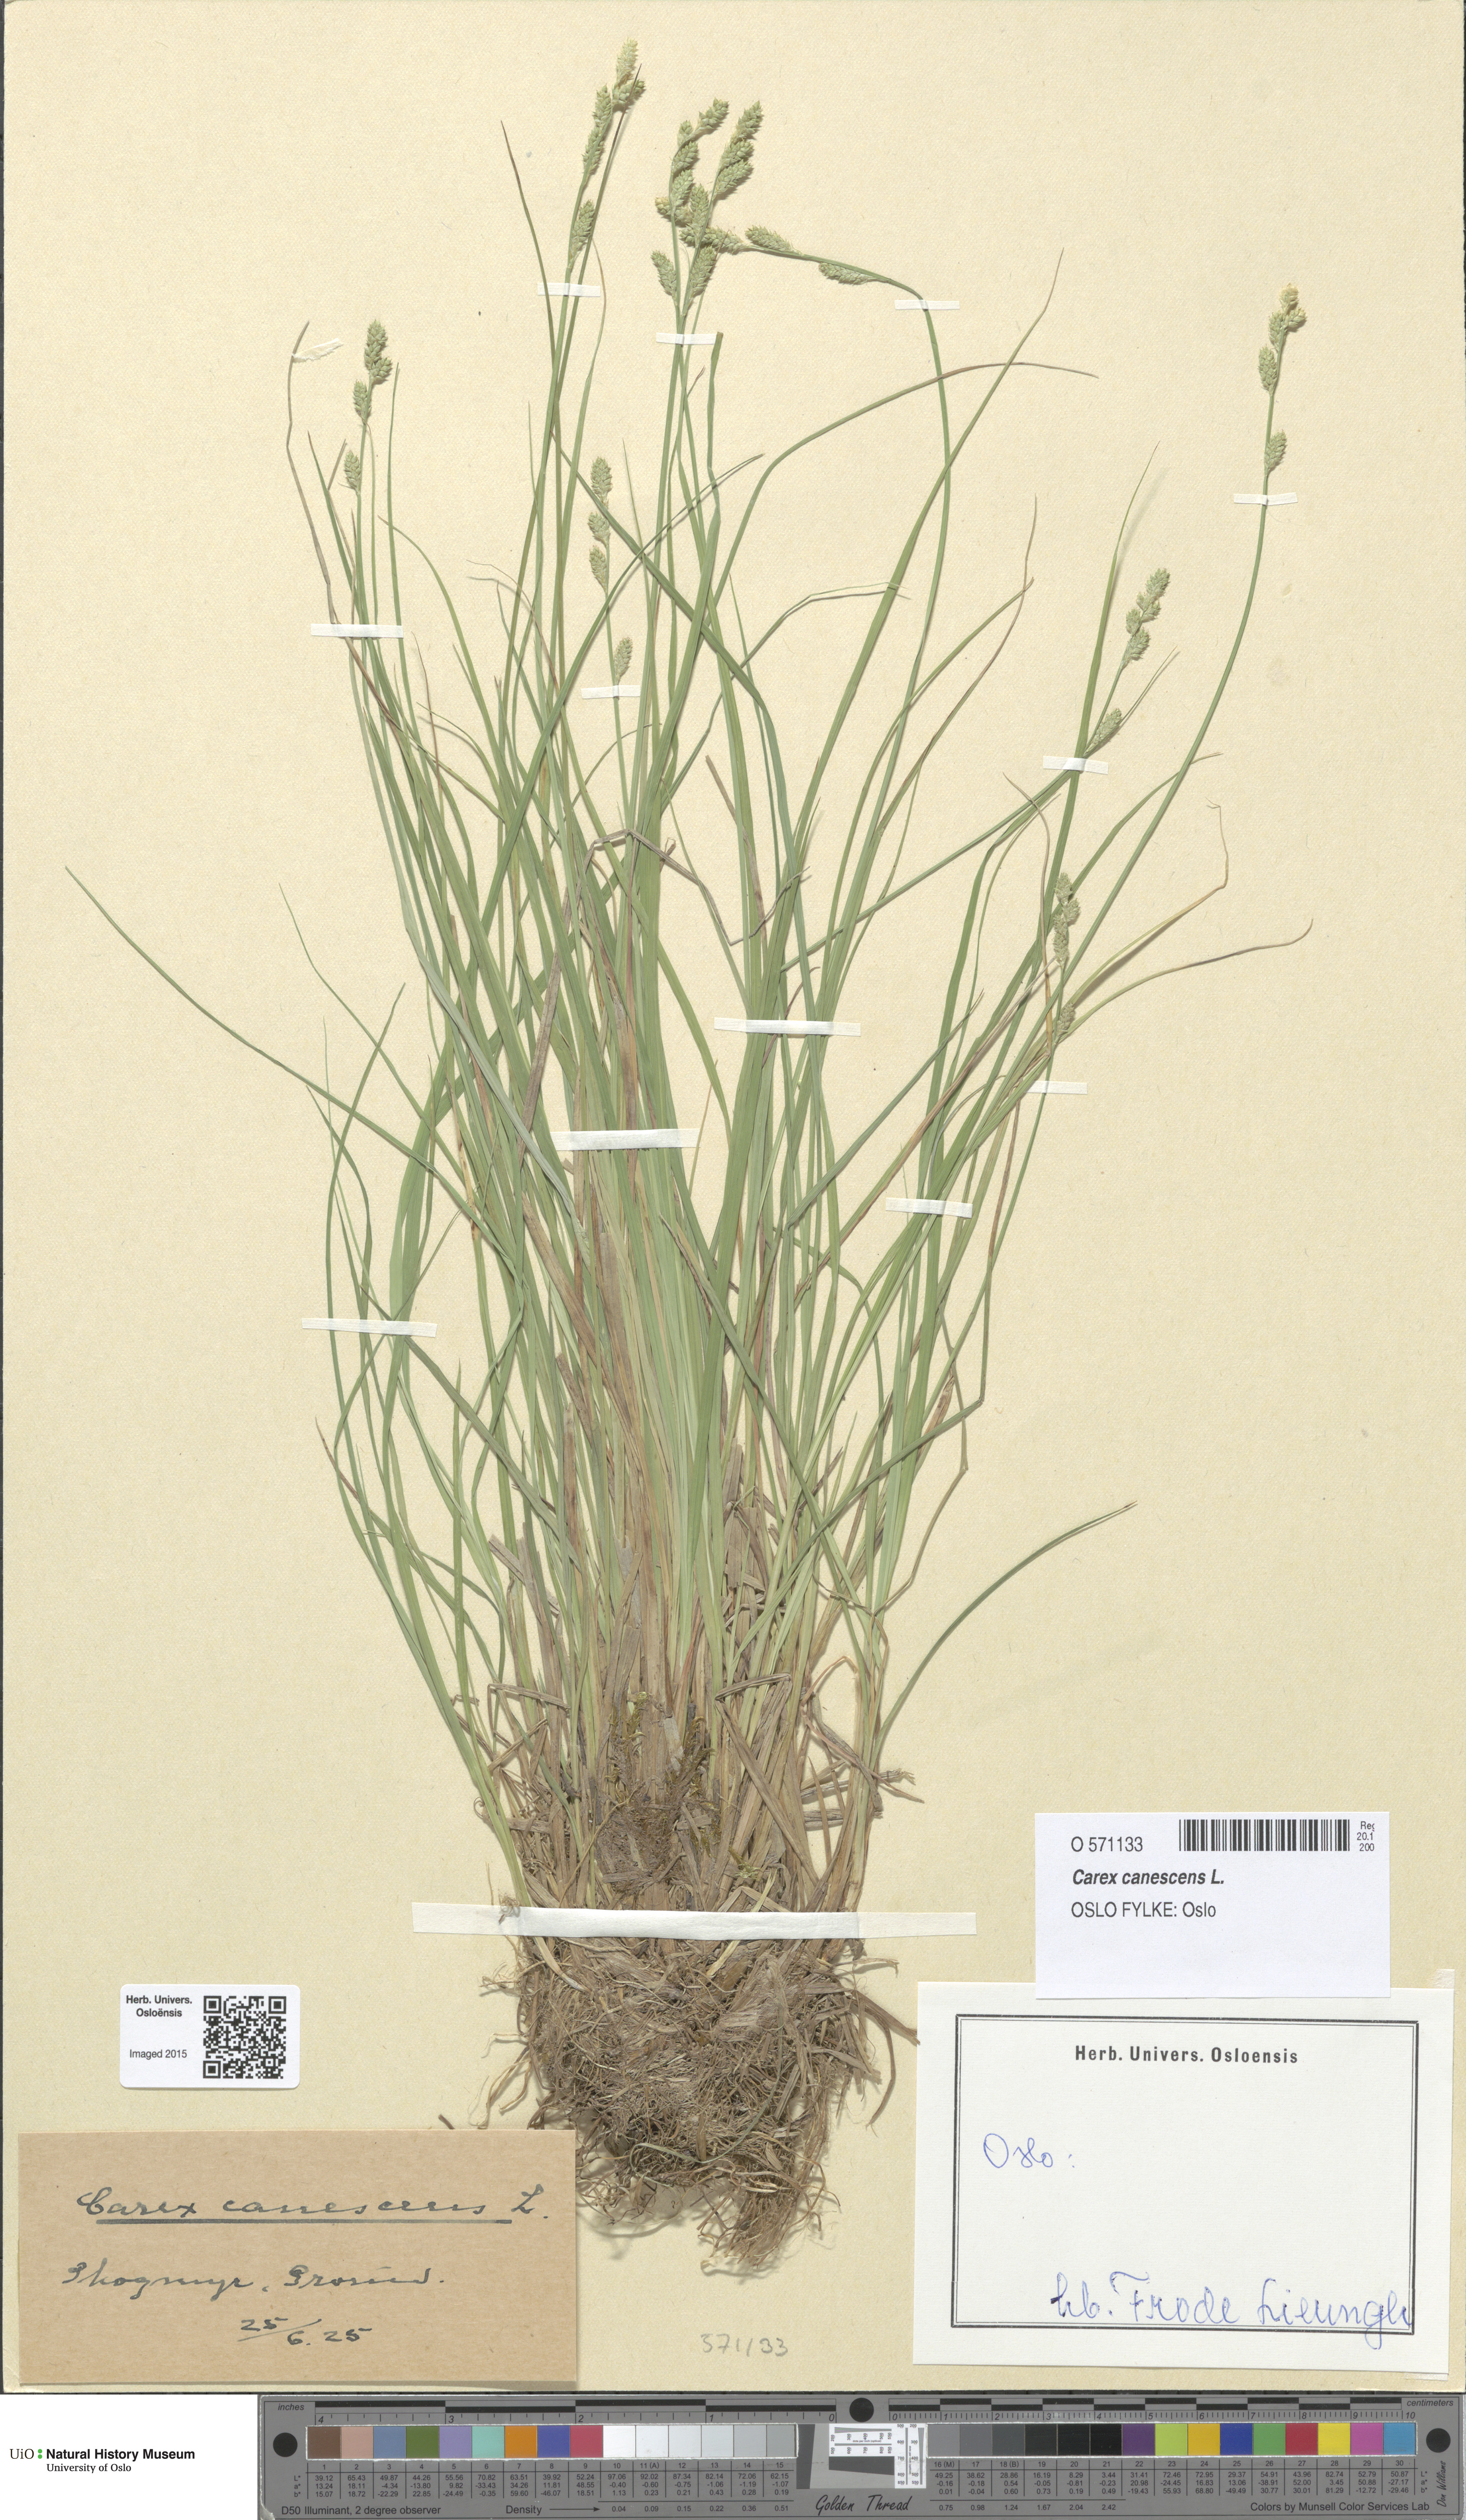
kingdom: Plantae
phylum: Tracheophyta
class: Liliopsida
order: Poales
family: Cyperaceae
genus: Carex
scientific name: Carex canescens
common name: White sedge
